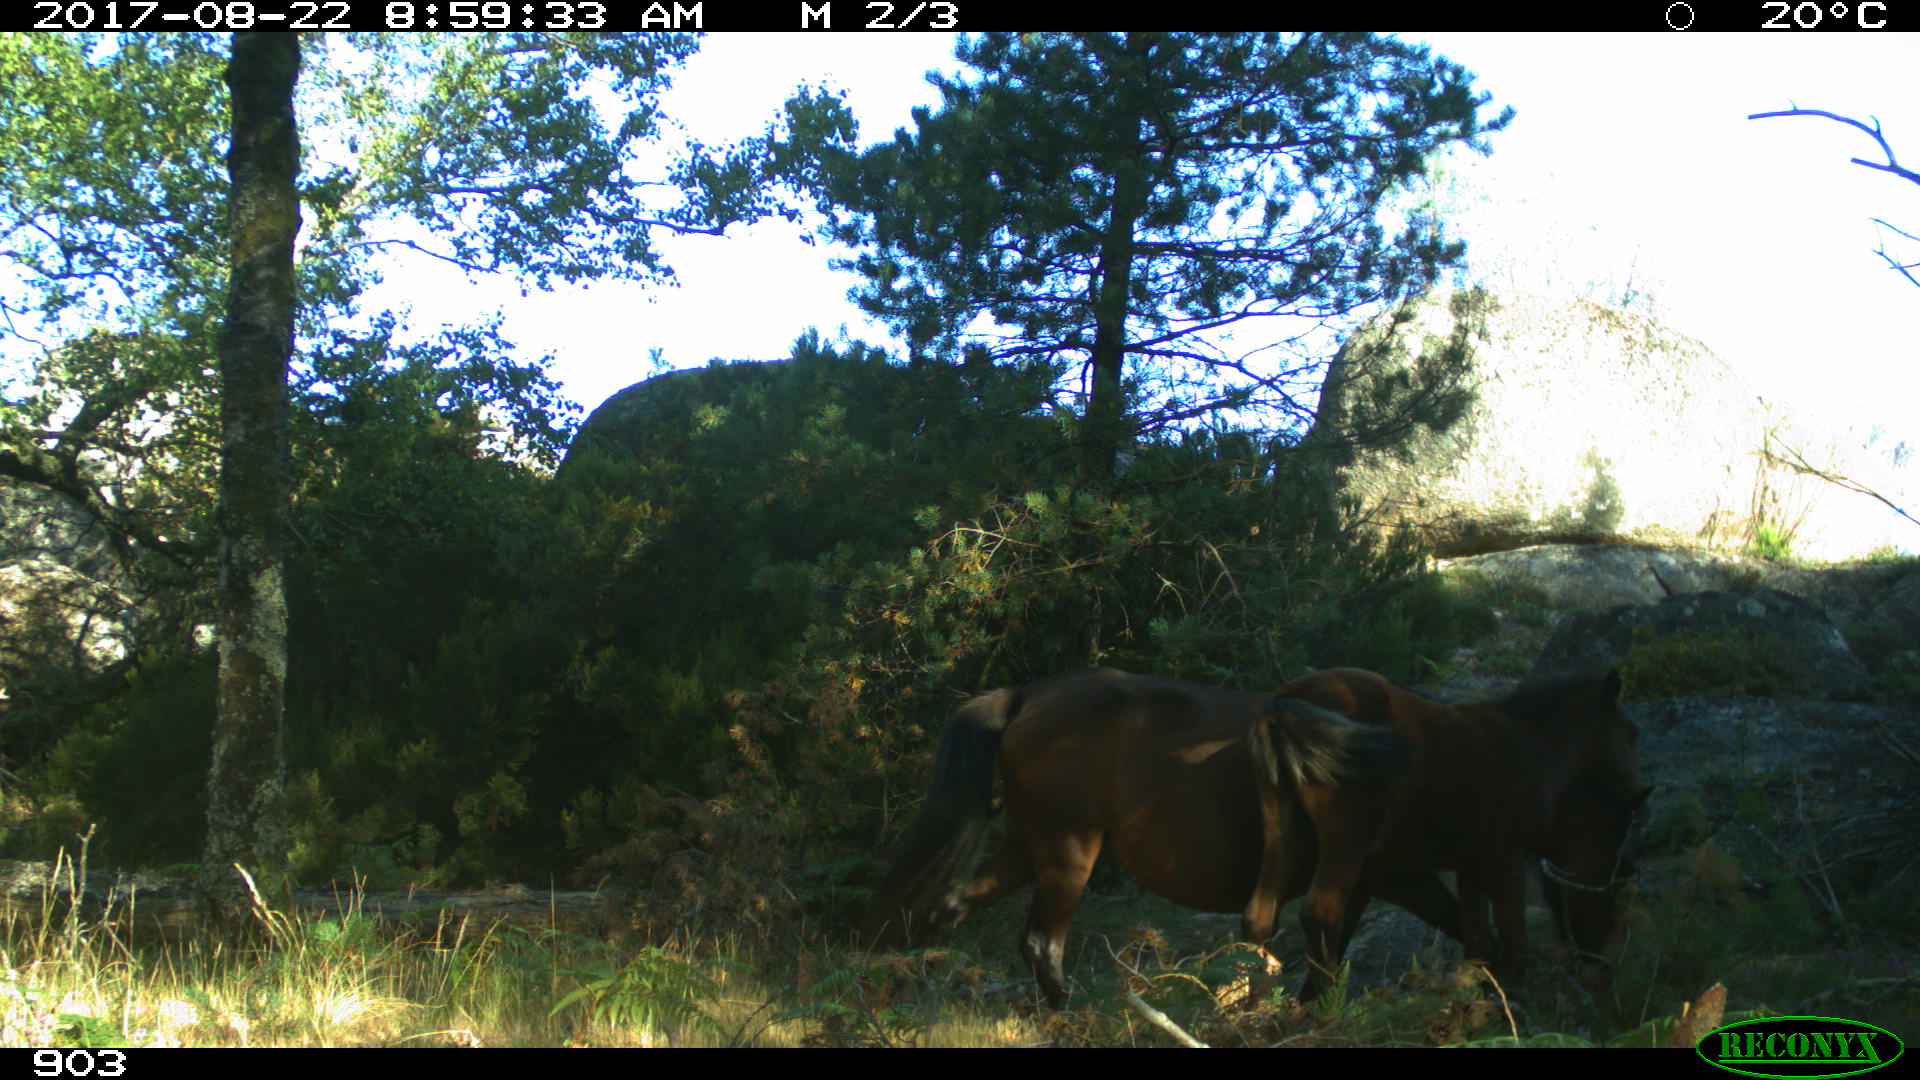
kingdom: Animalia
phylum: Chordata
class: Mammalia
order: Perissodactyla
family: Equidae
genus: Equus
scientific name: Equus caballus
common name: Horse
